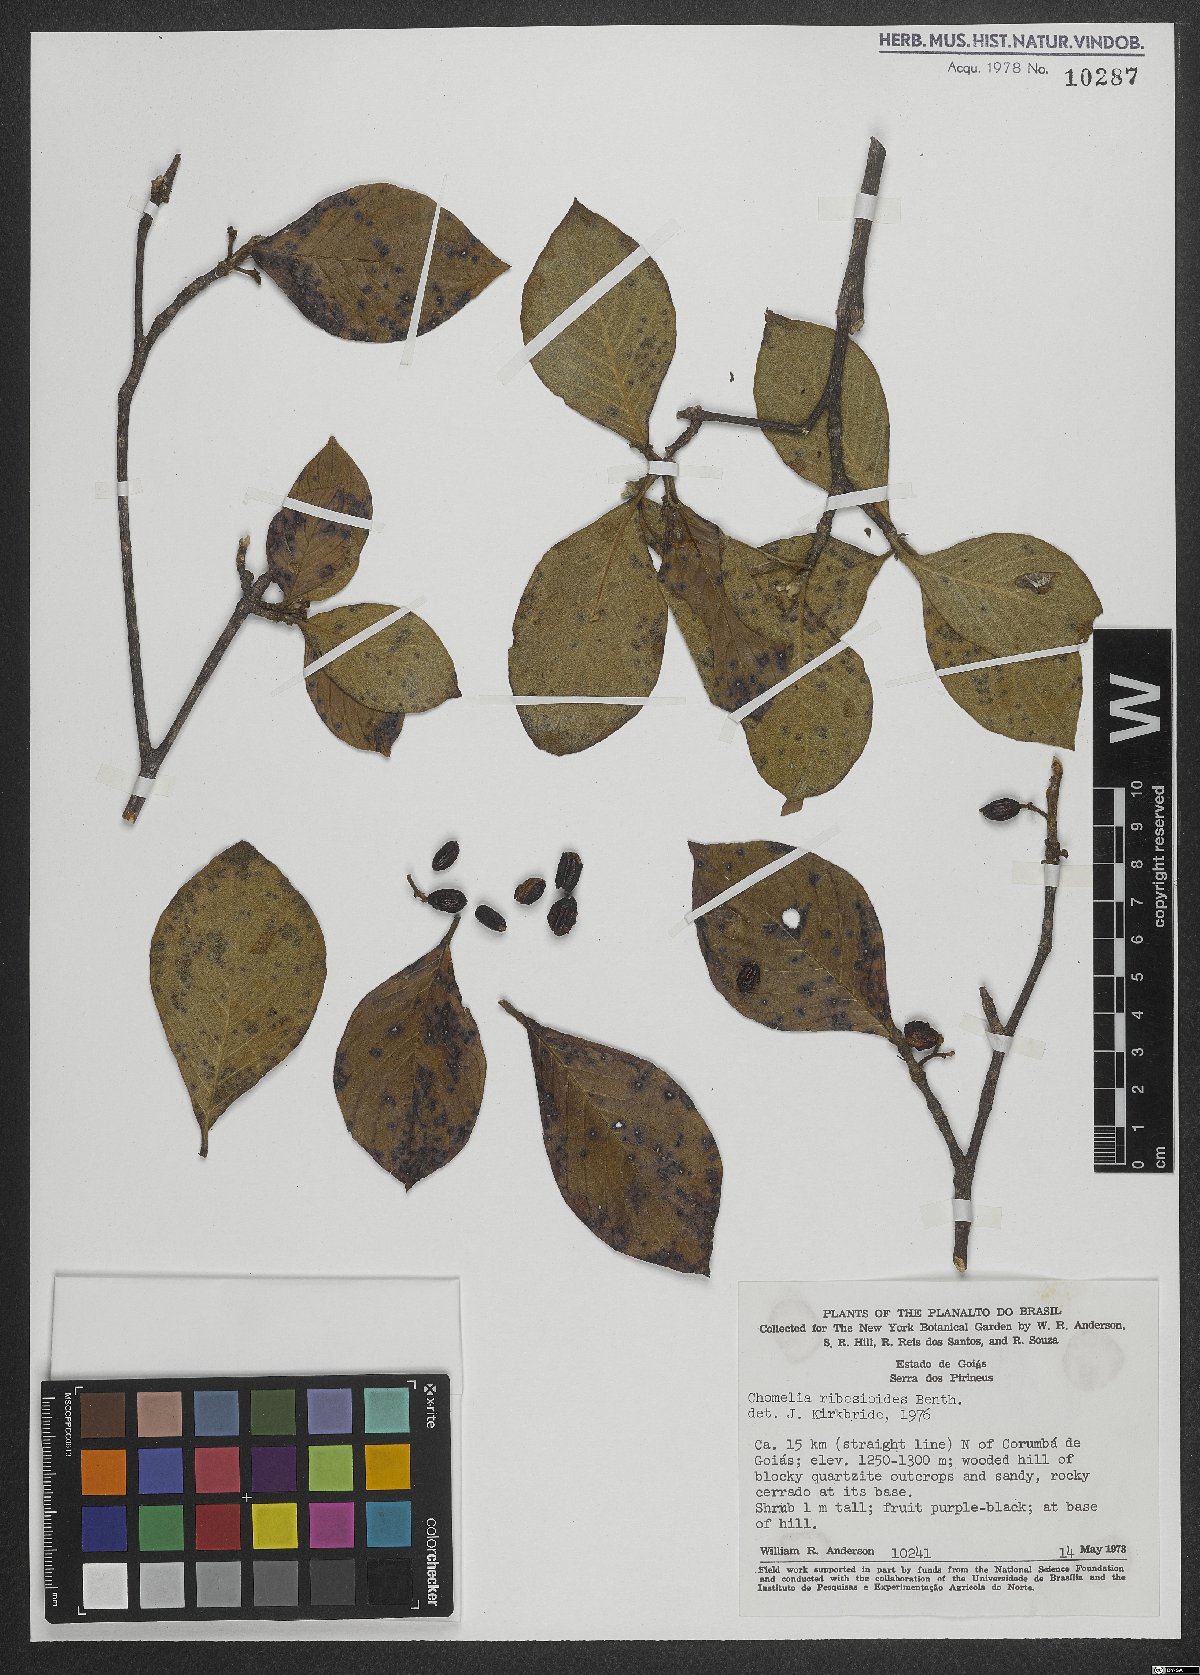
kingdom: Plantae
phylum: Tracheophyta
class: Magnoliopsida
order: Gentianales
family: Rubiaceae
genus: Chomelia
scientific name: Chomelia ribesioides
